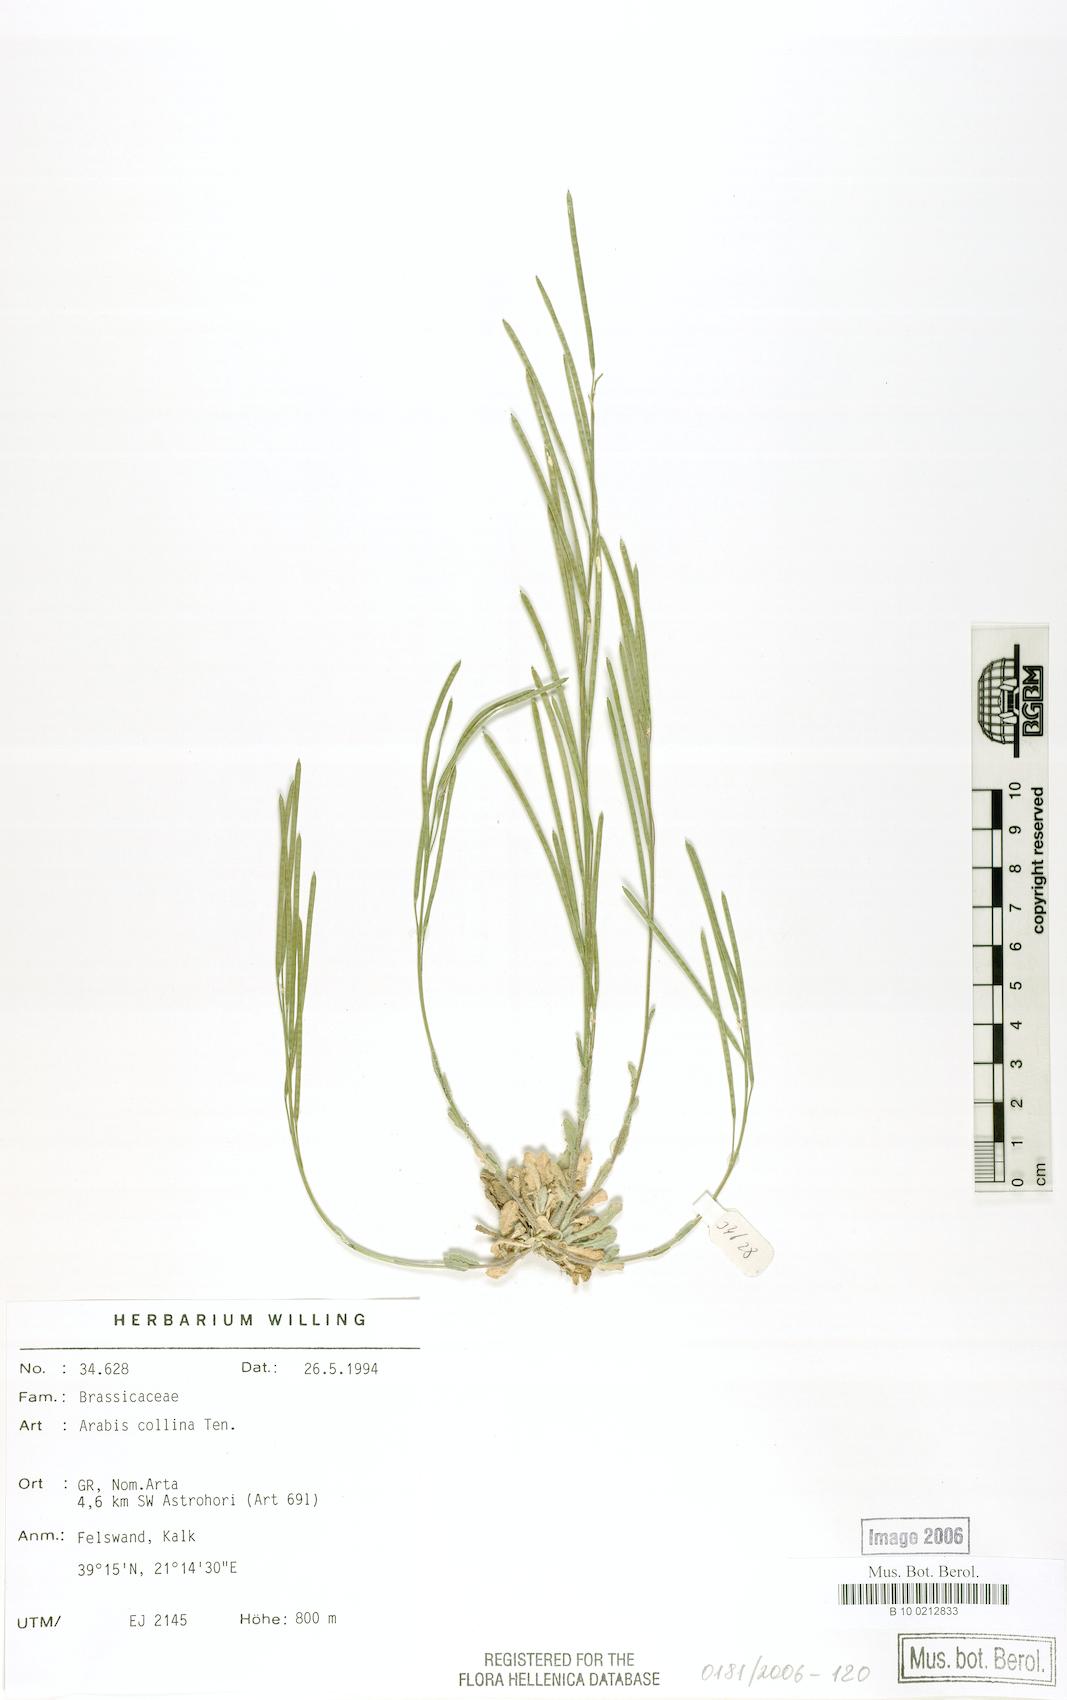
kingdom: Plantae
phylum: Tracheophyta
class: Magnoliopsida
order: Brassicales
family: Brassicaceae
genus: Arabis
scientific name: Arabis collina
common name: Rosy cress
